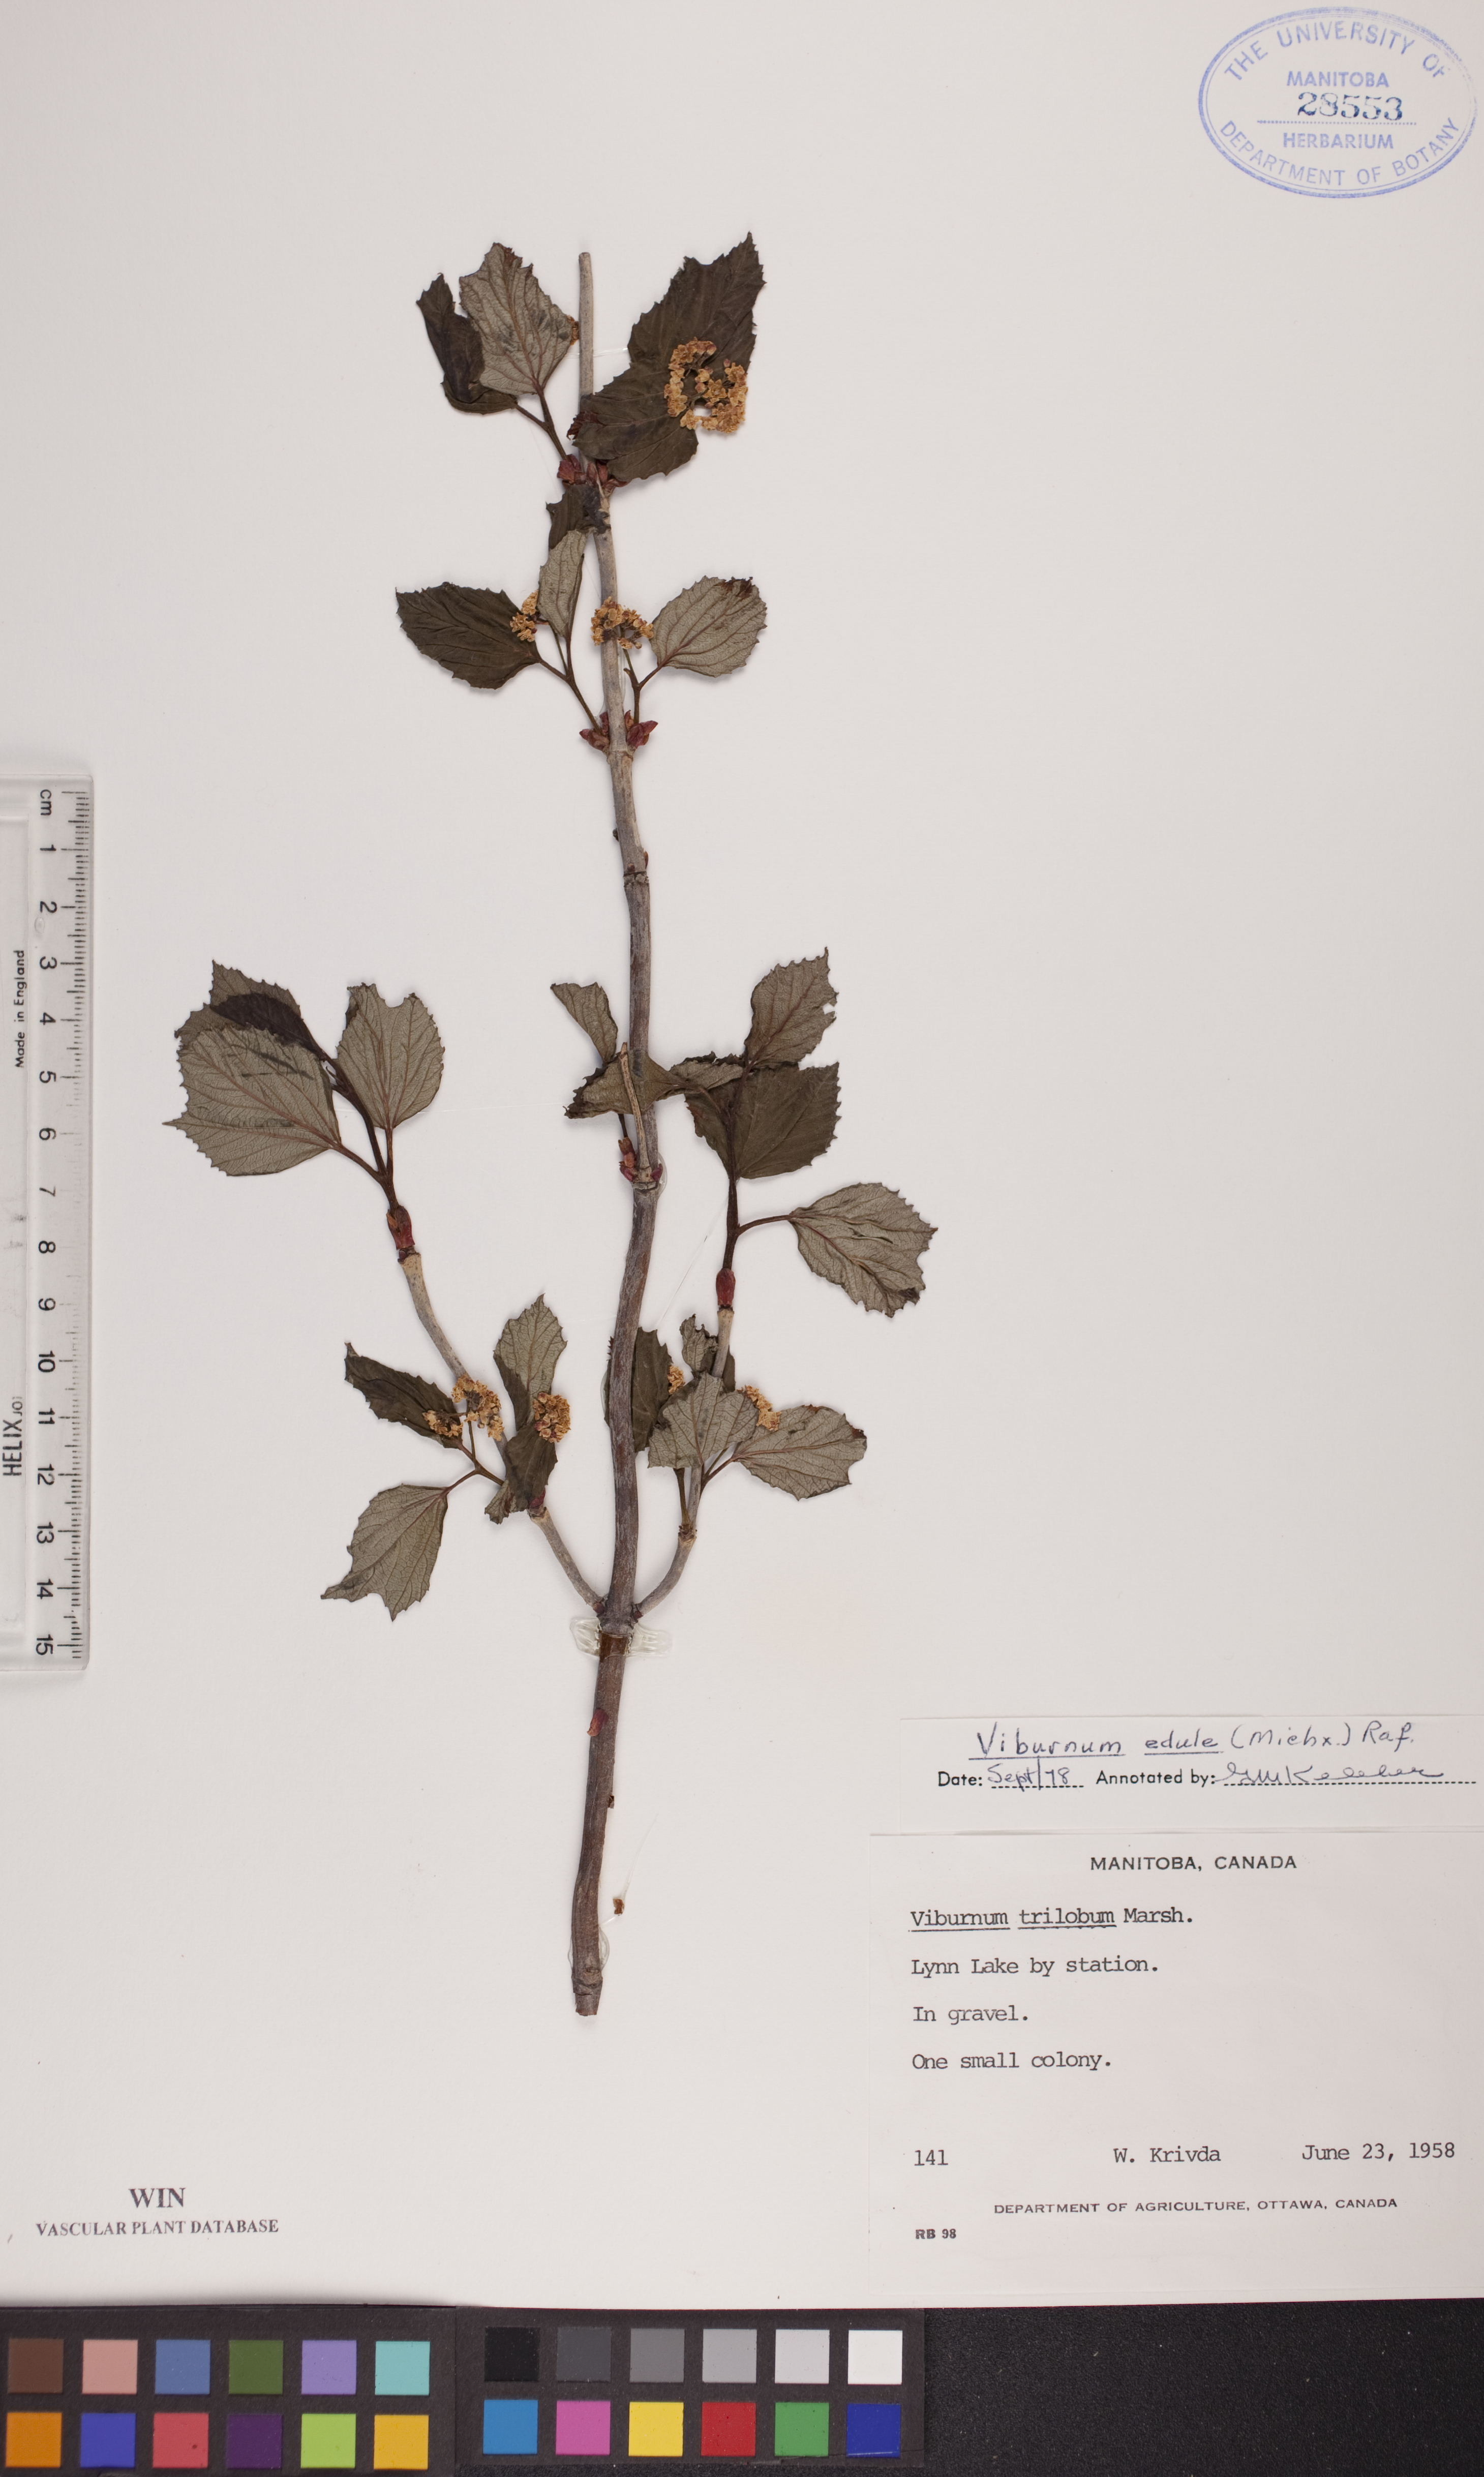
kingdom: Plantae
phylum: Tracheophyta
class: Magnoliopsida
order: Dipsacales
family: Viburnaceae
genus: Viburnum
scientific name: Viburnum edule
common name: Mooseberry
